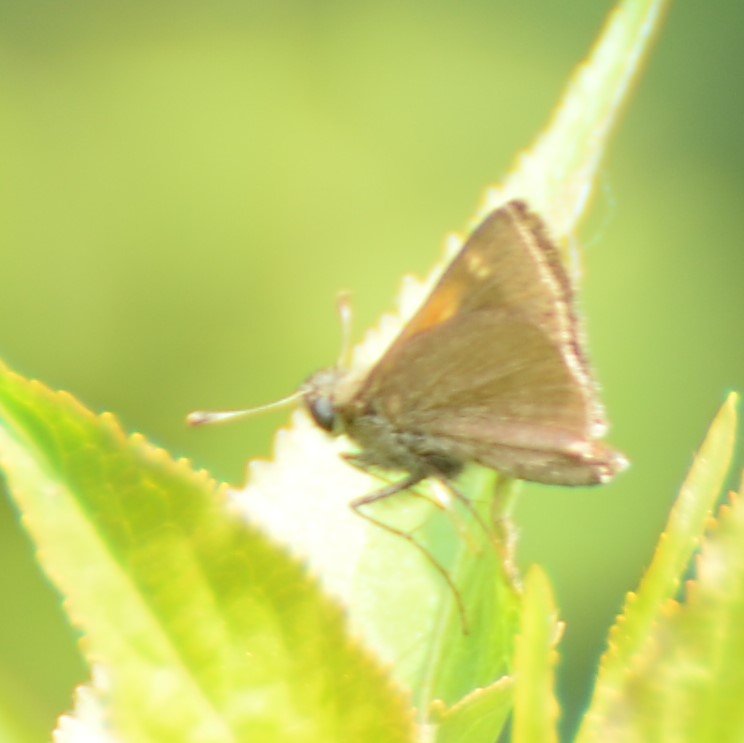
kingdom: Animalia
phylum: Arthropoda
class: Insecta
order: Lepidoptera
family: Hesperiidae
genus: Polites
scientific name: Polites themistocles
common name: Tawny-edged Skipper
